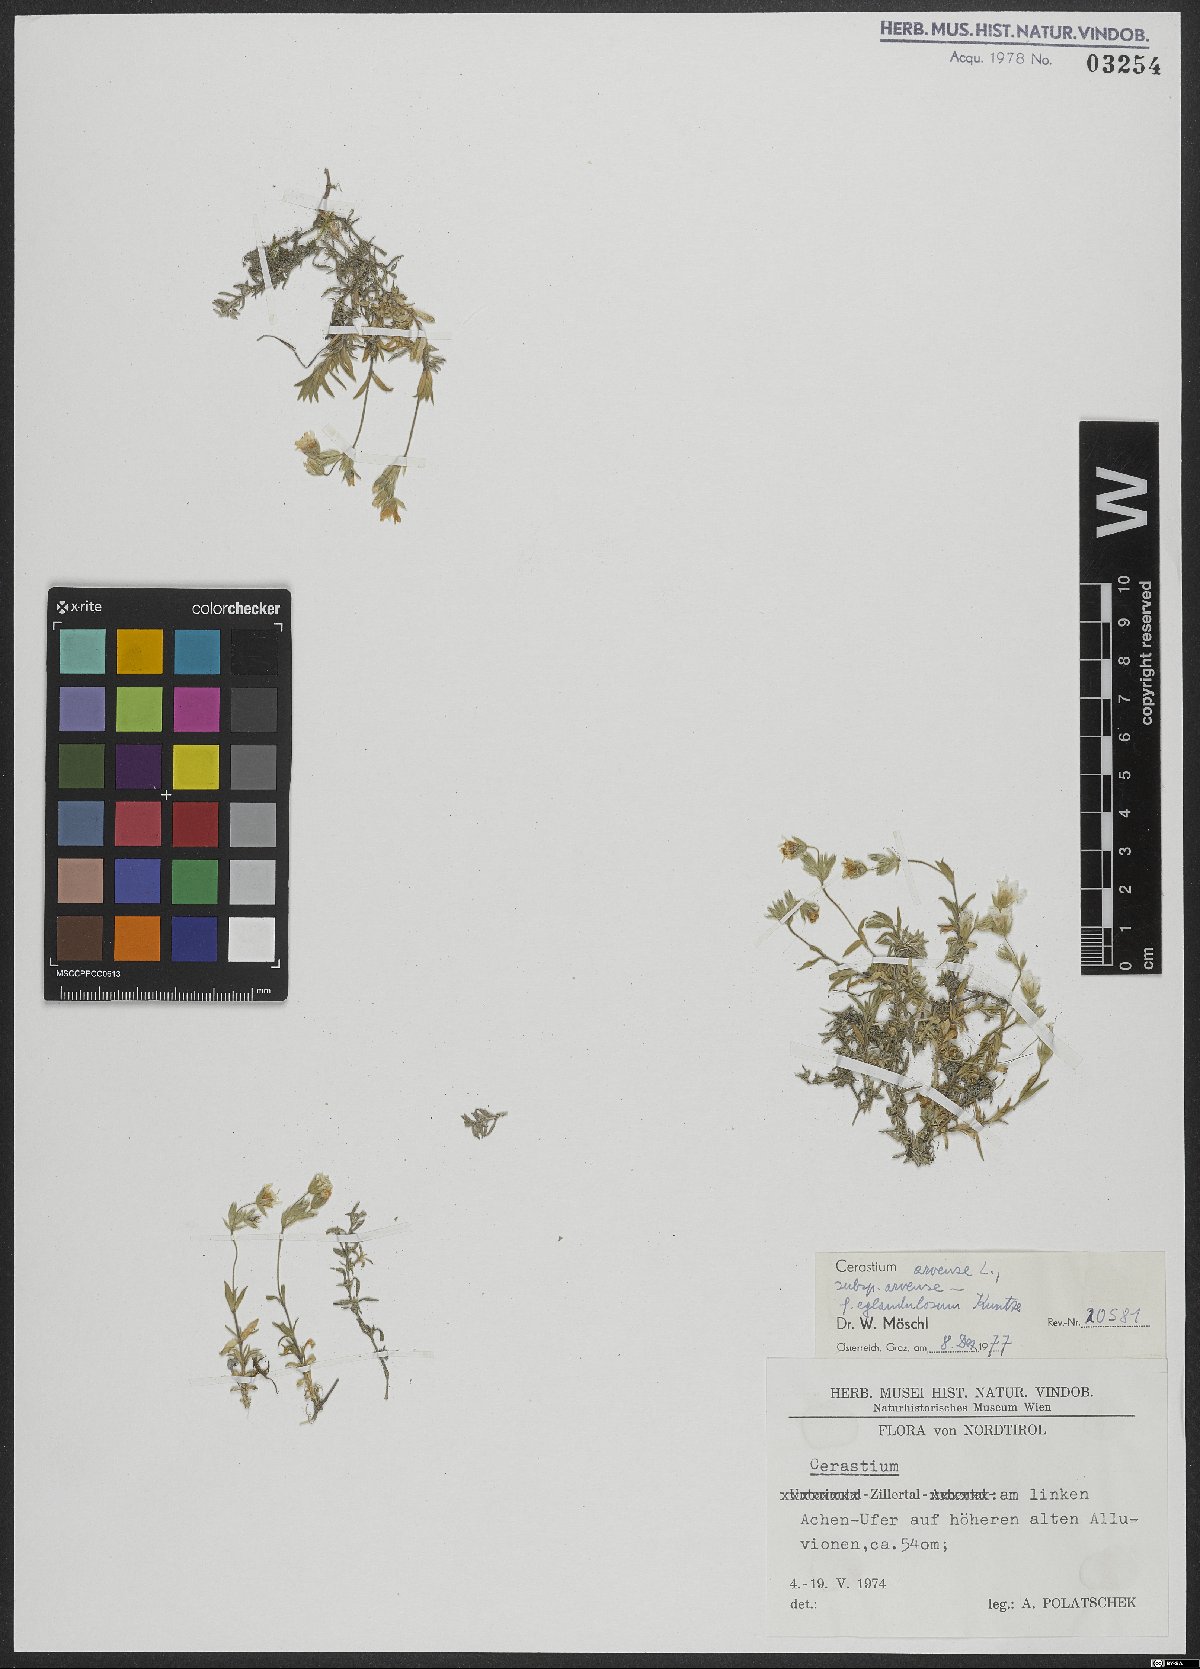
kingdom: Plantae
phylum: Tracheophyta
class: Magnoliopsida
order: Caryophyllales
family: Caryophyllaceae
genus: Cerastium
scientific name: Cerastium arvense
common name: Field mouse-ear
